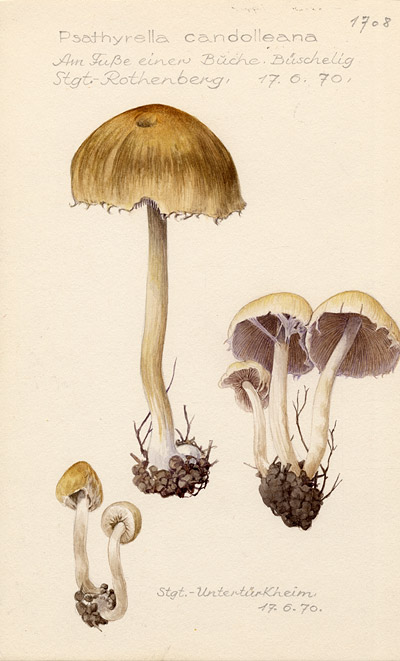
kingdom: Fungi
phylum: Basidiomycota
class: Agaricomycetes
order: Agaricales
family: Psathyrellaceae
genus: Candolleomyces
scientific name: Candolleomyces candolleanus
